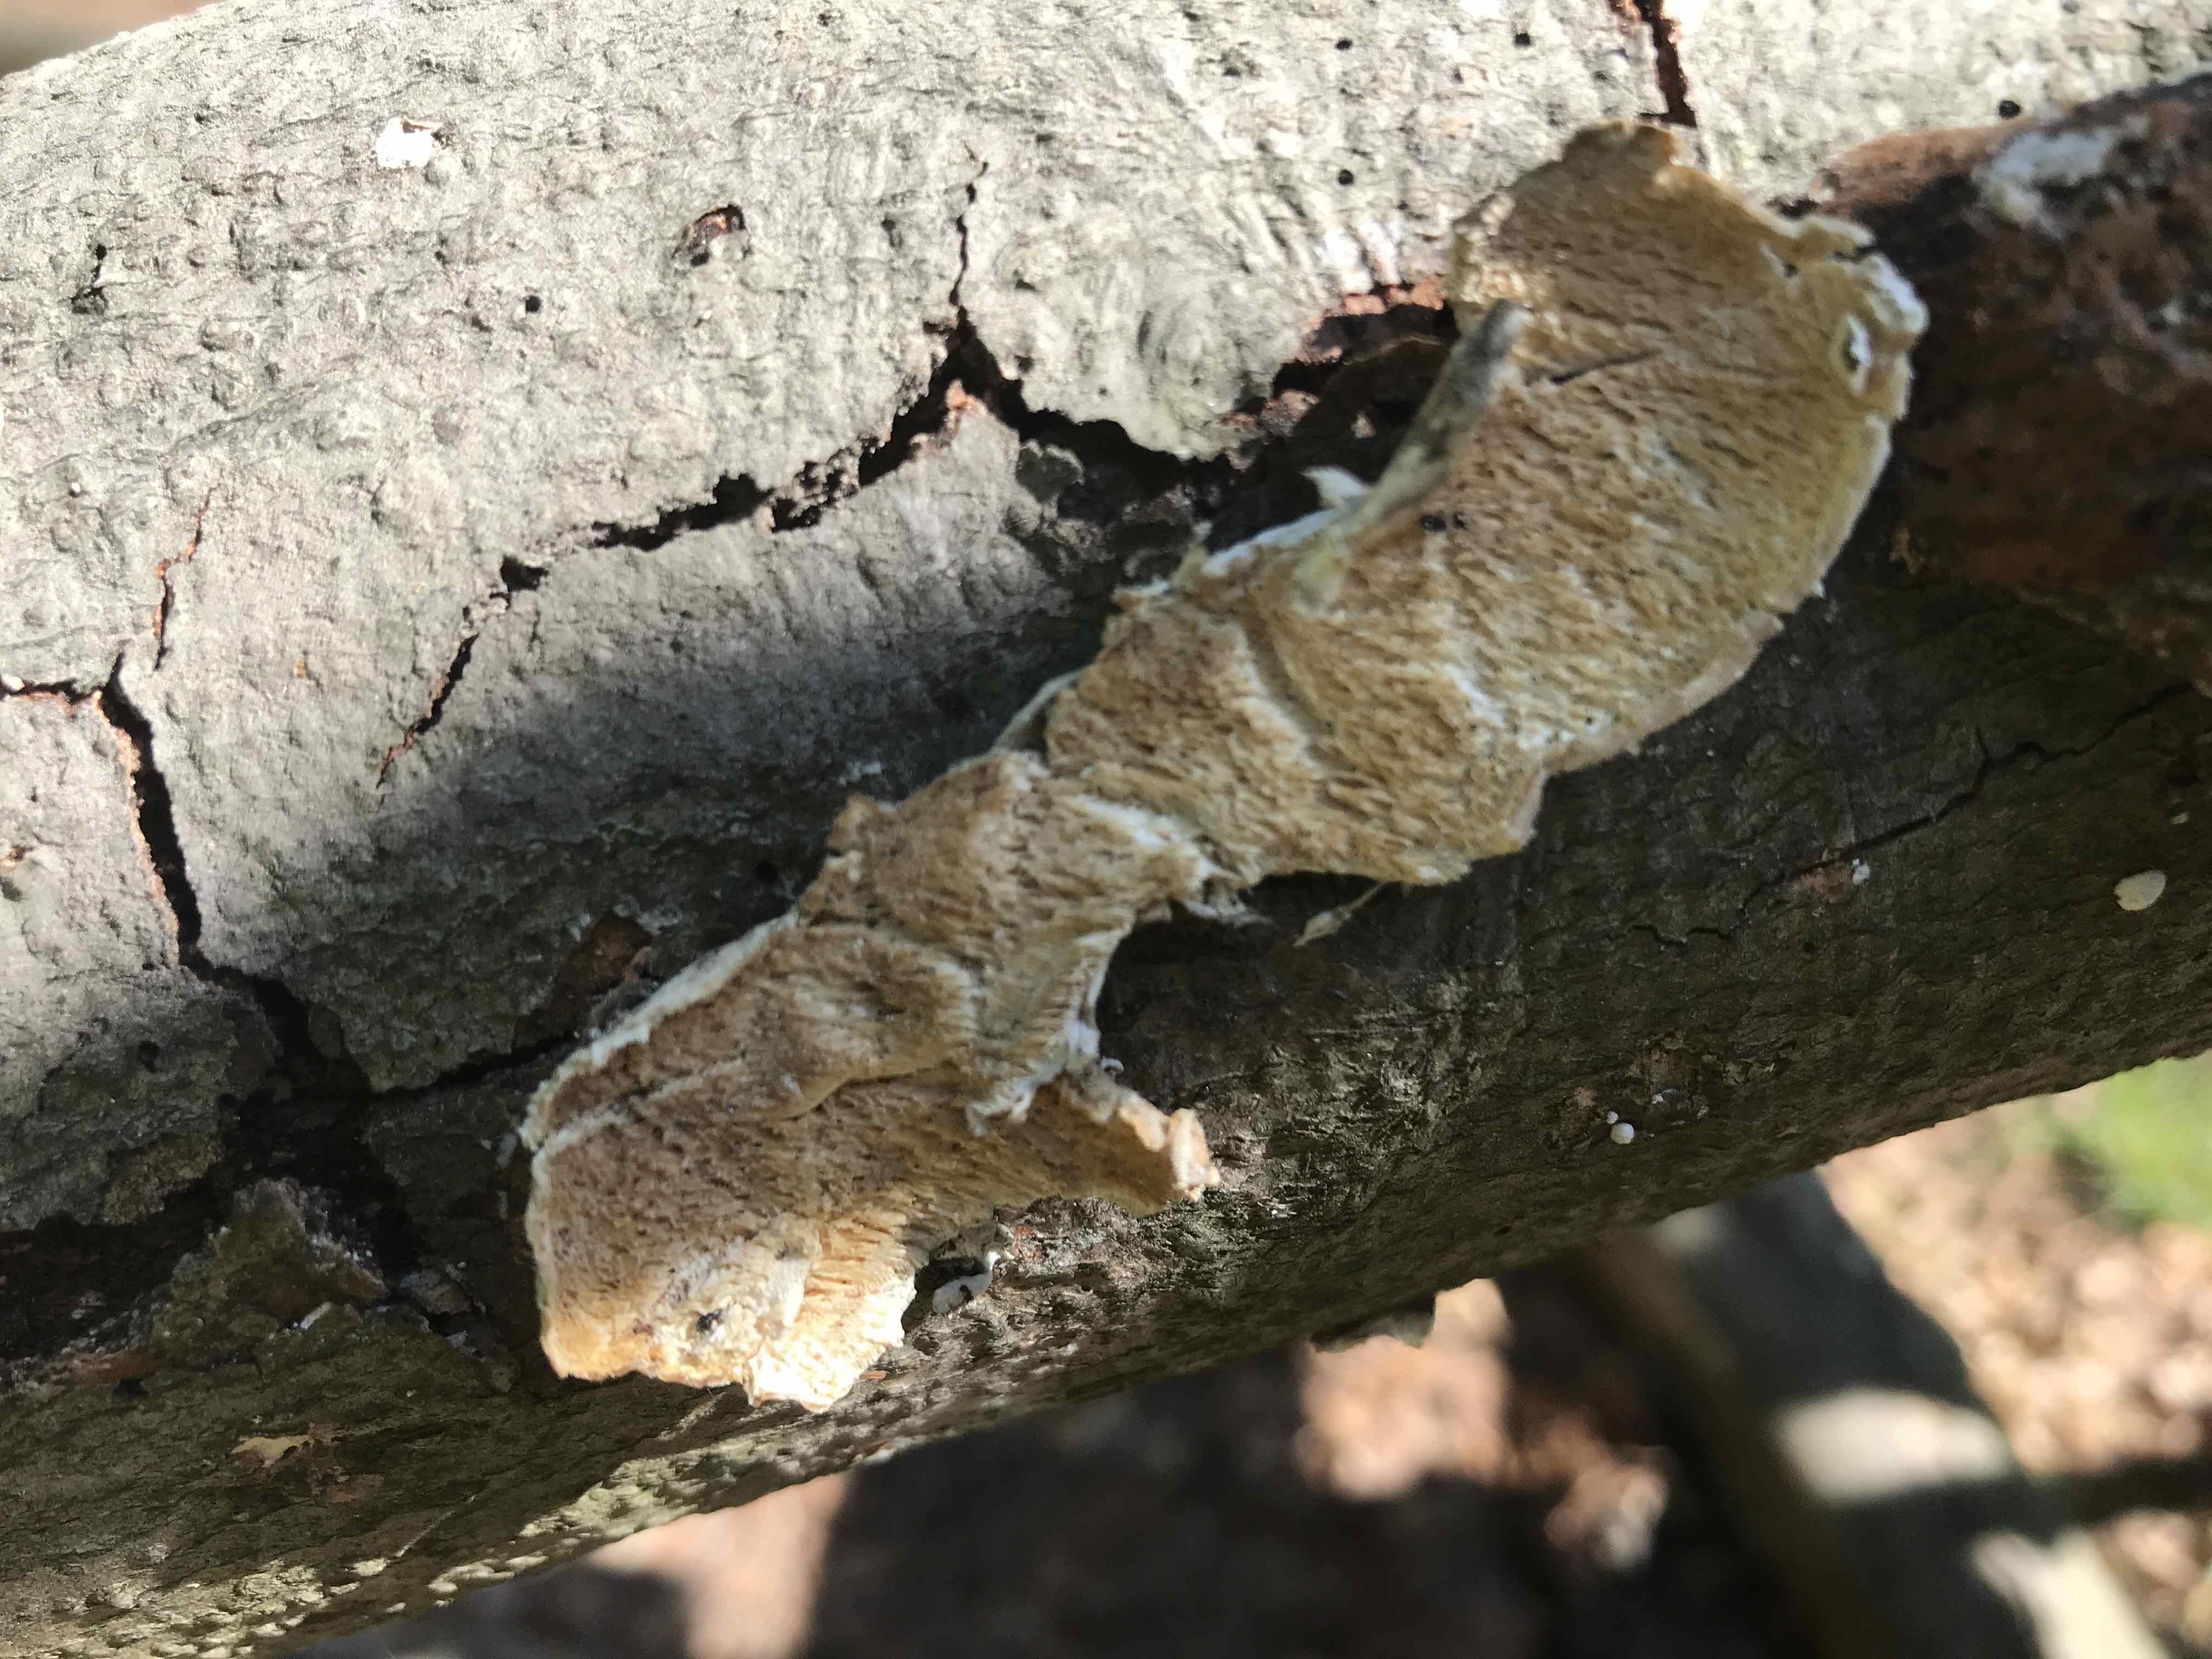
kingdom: Fungi
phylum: Basidiomycota
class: Agaricomycetes
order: Polyporales
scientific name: Polyporales
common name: poresvampordenen
